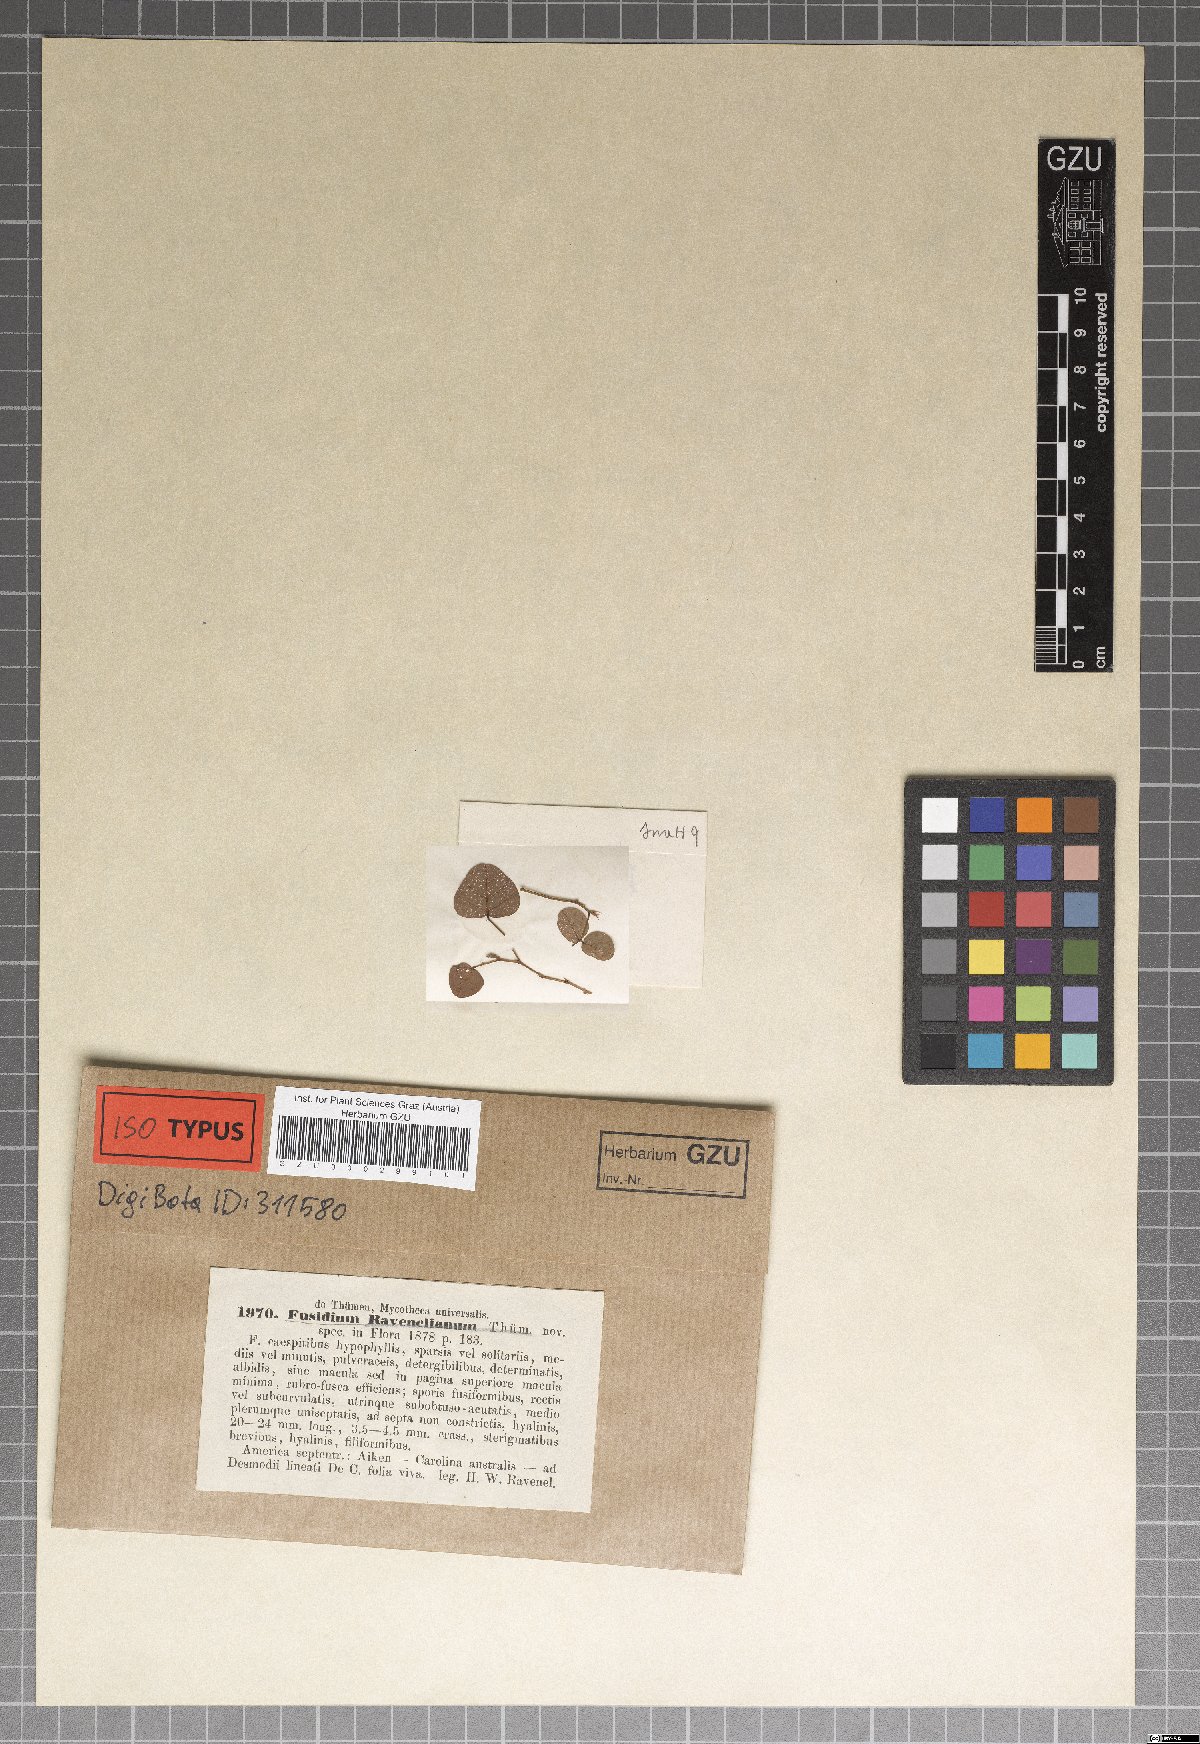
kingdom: Fungi
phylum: Ascomycota
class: Sordariomycetes
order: Hypocreales
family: Nectriaceae
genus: Fusidium
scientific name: Fusidium
